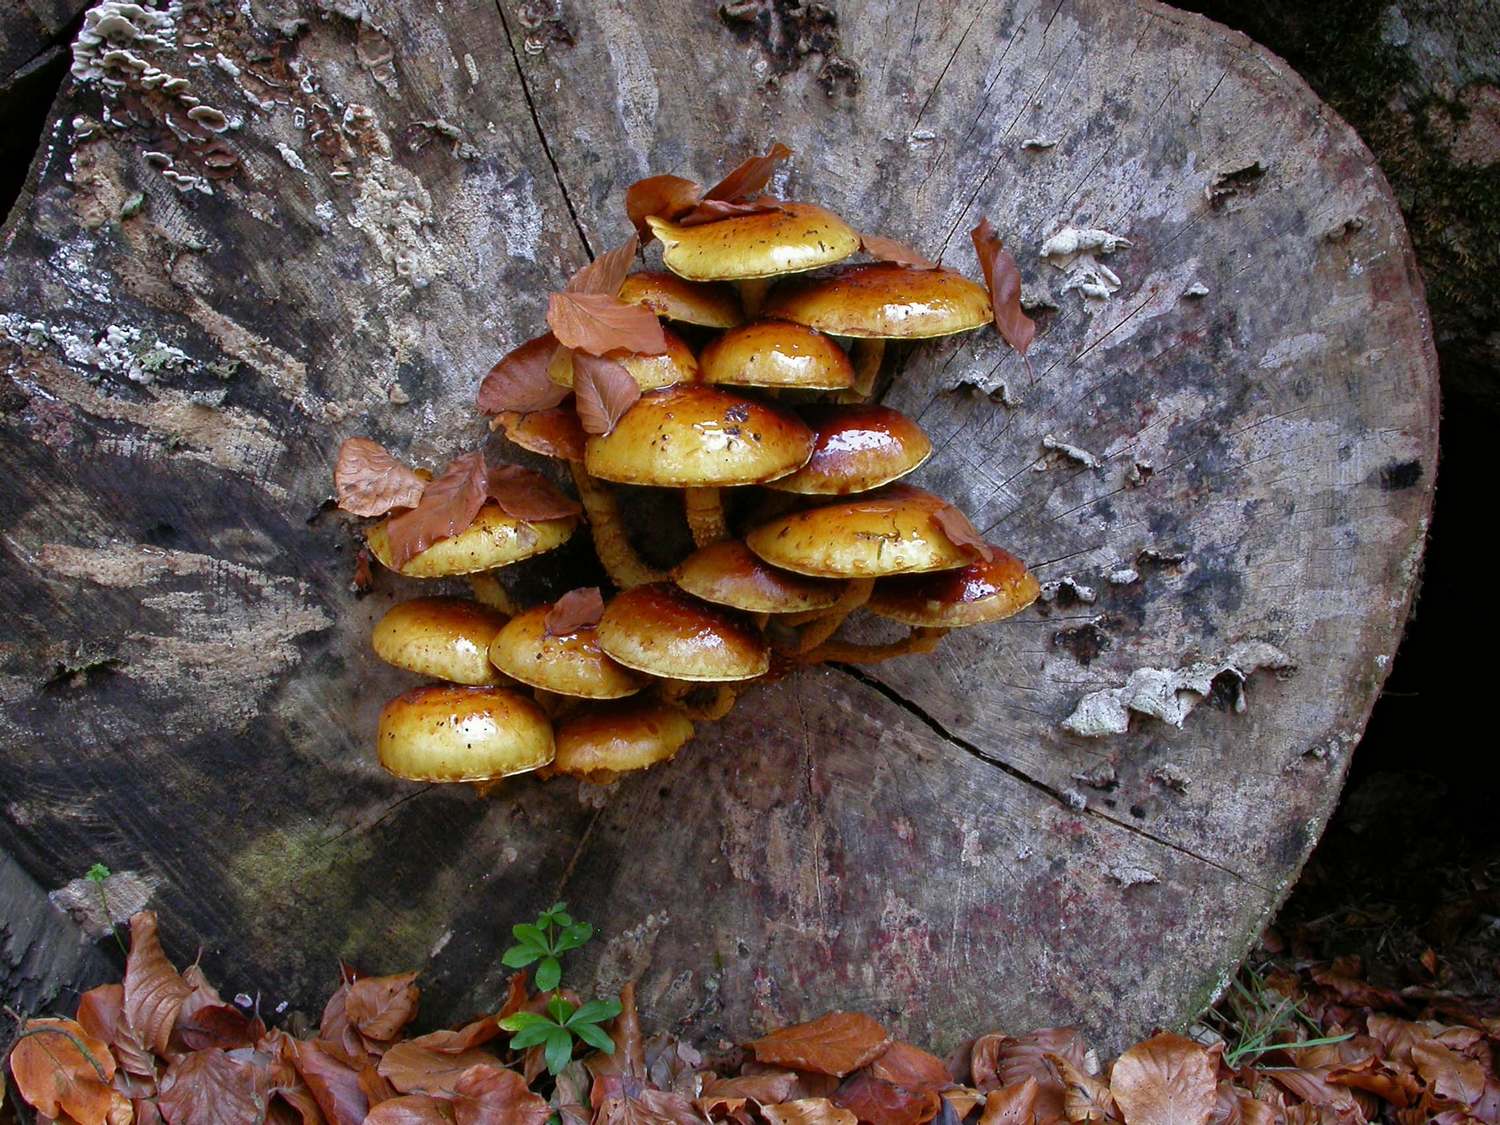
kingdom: Fungi
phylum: Basidiomycota
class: Agaricomycetes
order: Agaricales
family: Strophariaceae
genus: Pholiota
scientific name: Pholiota adiposa
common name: højtsiddende skælhat
